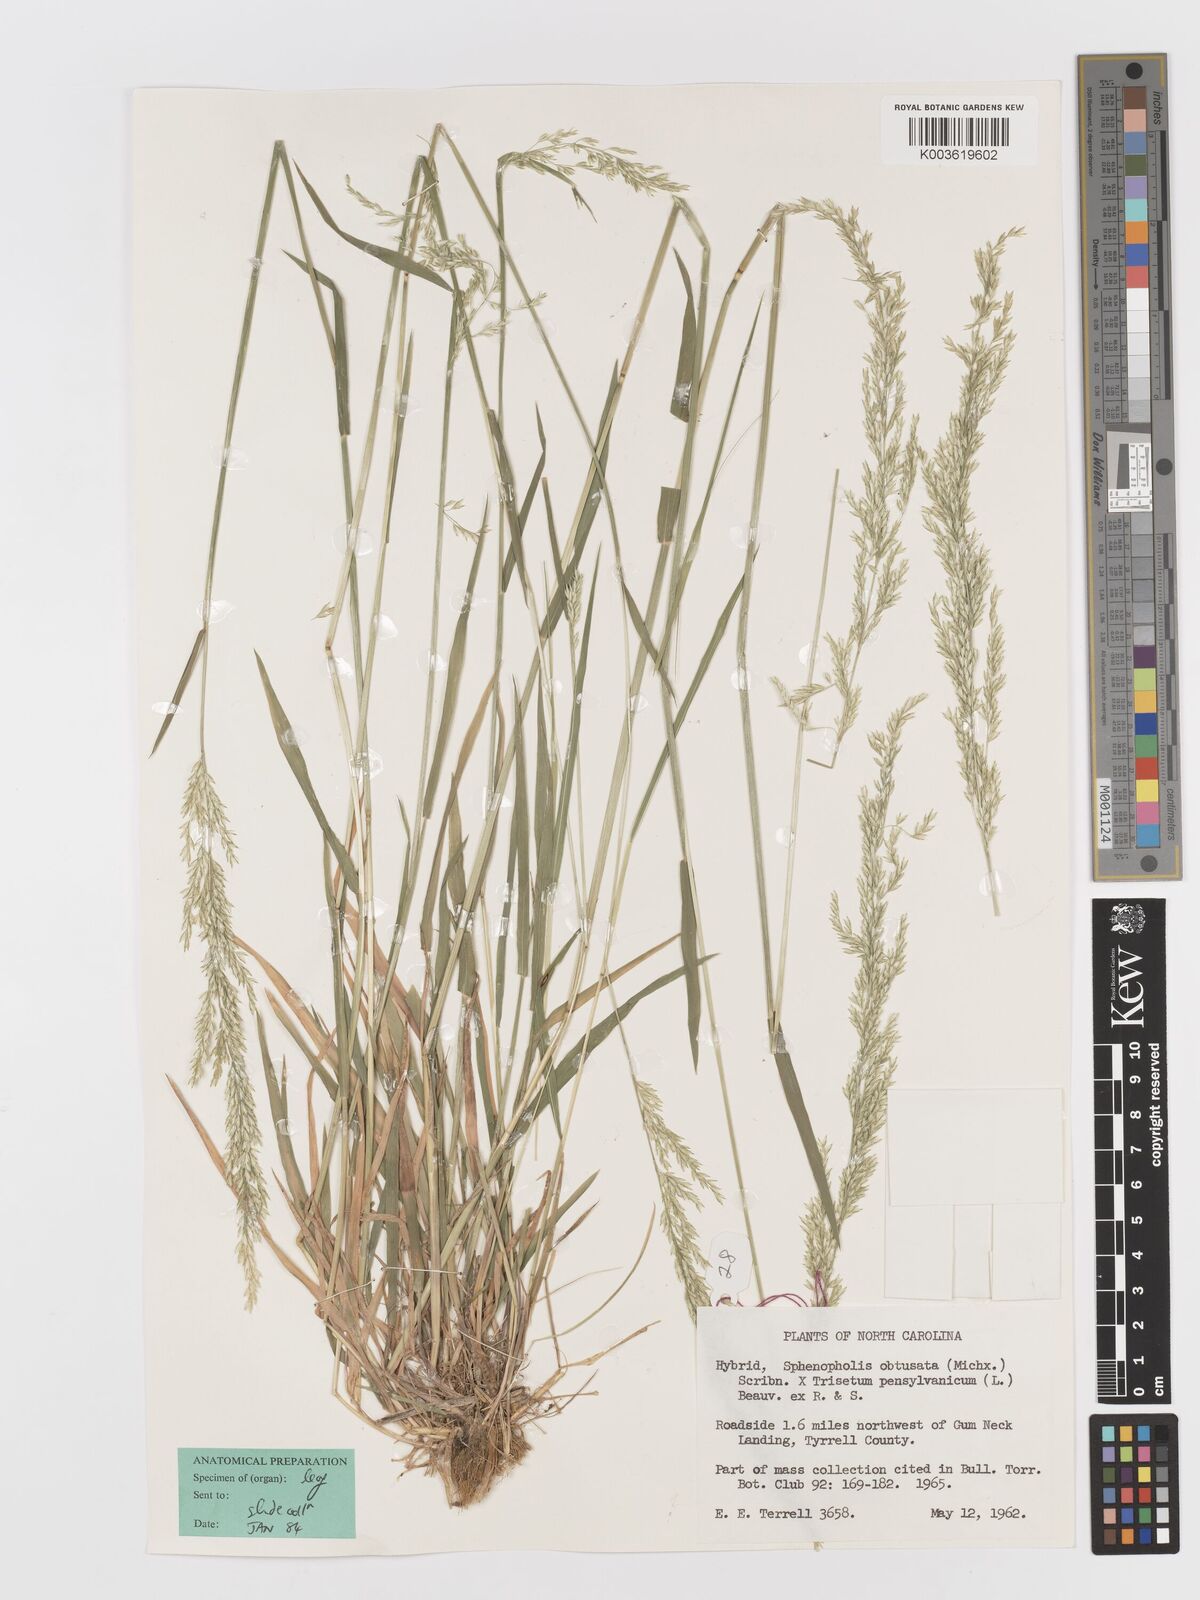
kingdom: Plantae
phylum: Tracheophyta
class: Liliopsida
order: Poales
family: Poaceae
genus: Sphenopholis
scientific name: Sphenopholis obtusata
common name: Prairie grass
